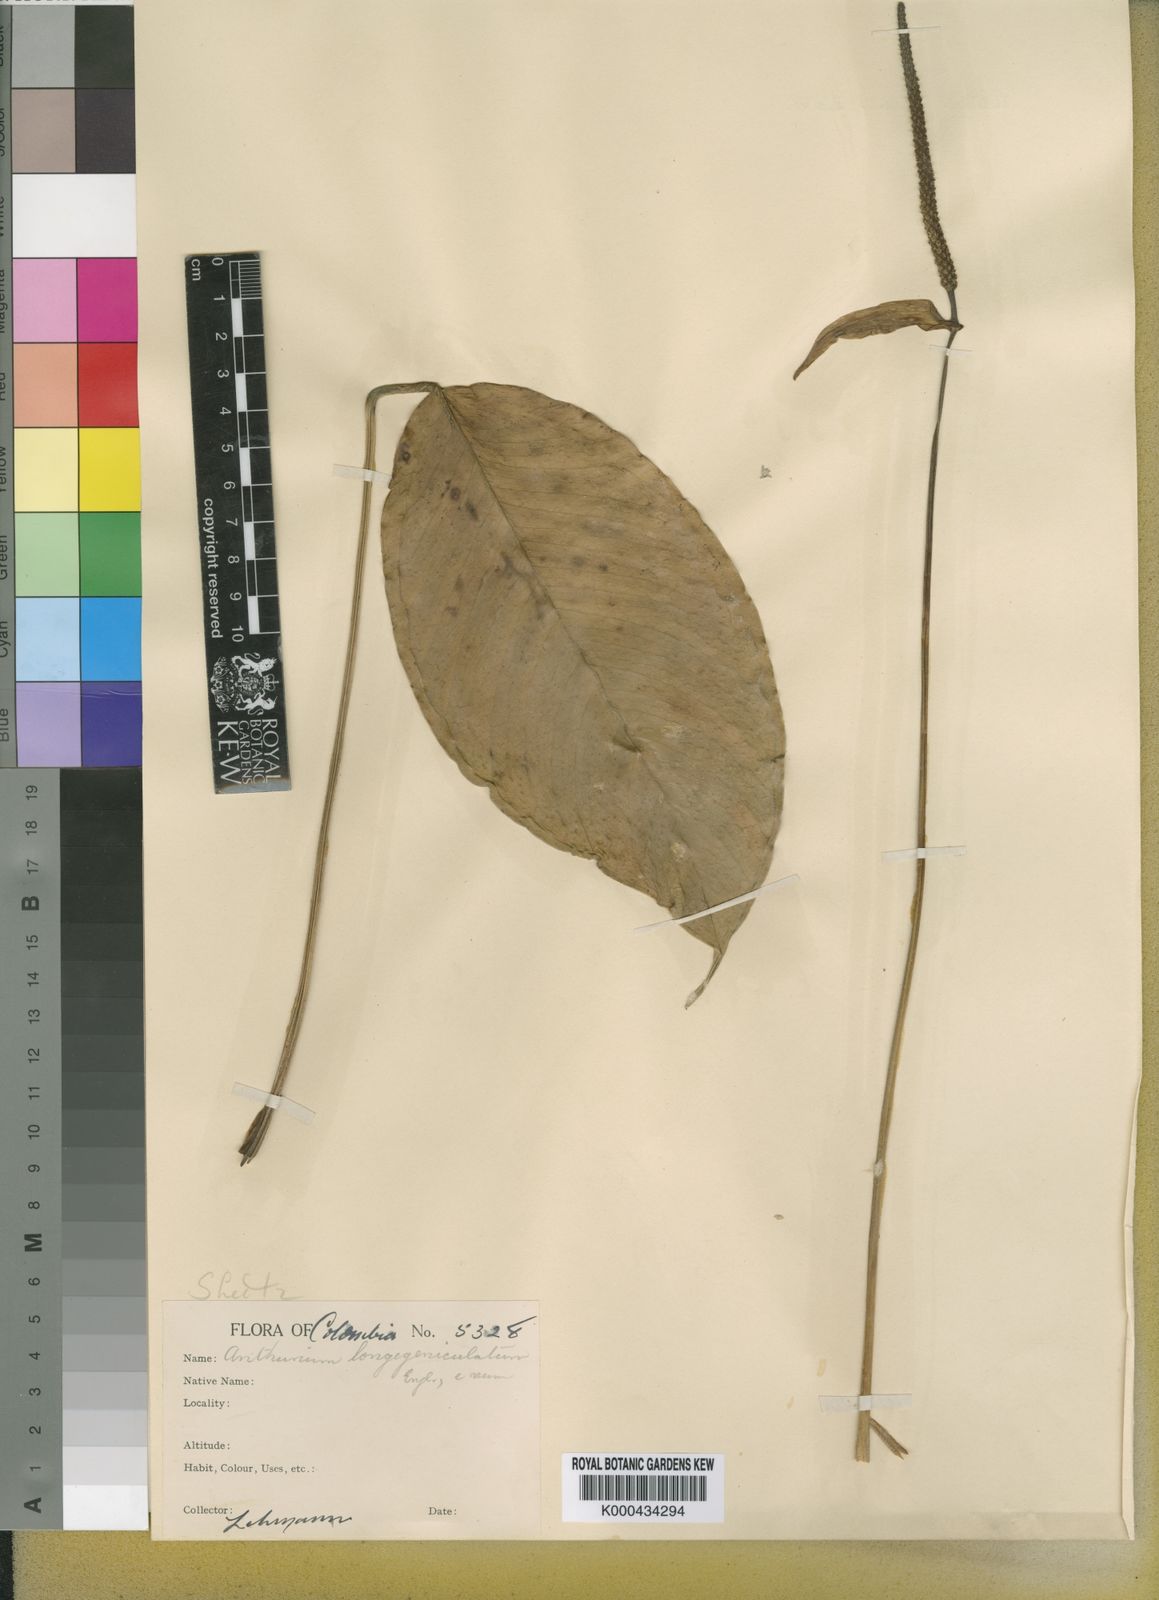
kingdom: Plantae
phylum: Tracheophyta
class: Liliopsida
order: Alismatales
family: Araceae
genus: Anthurium
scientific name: Anthurium
